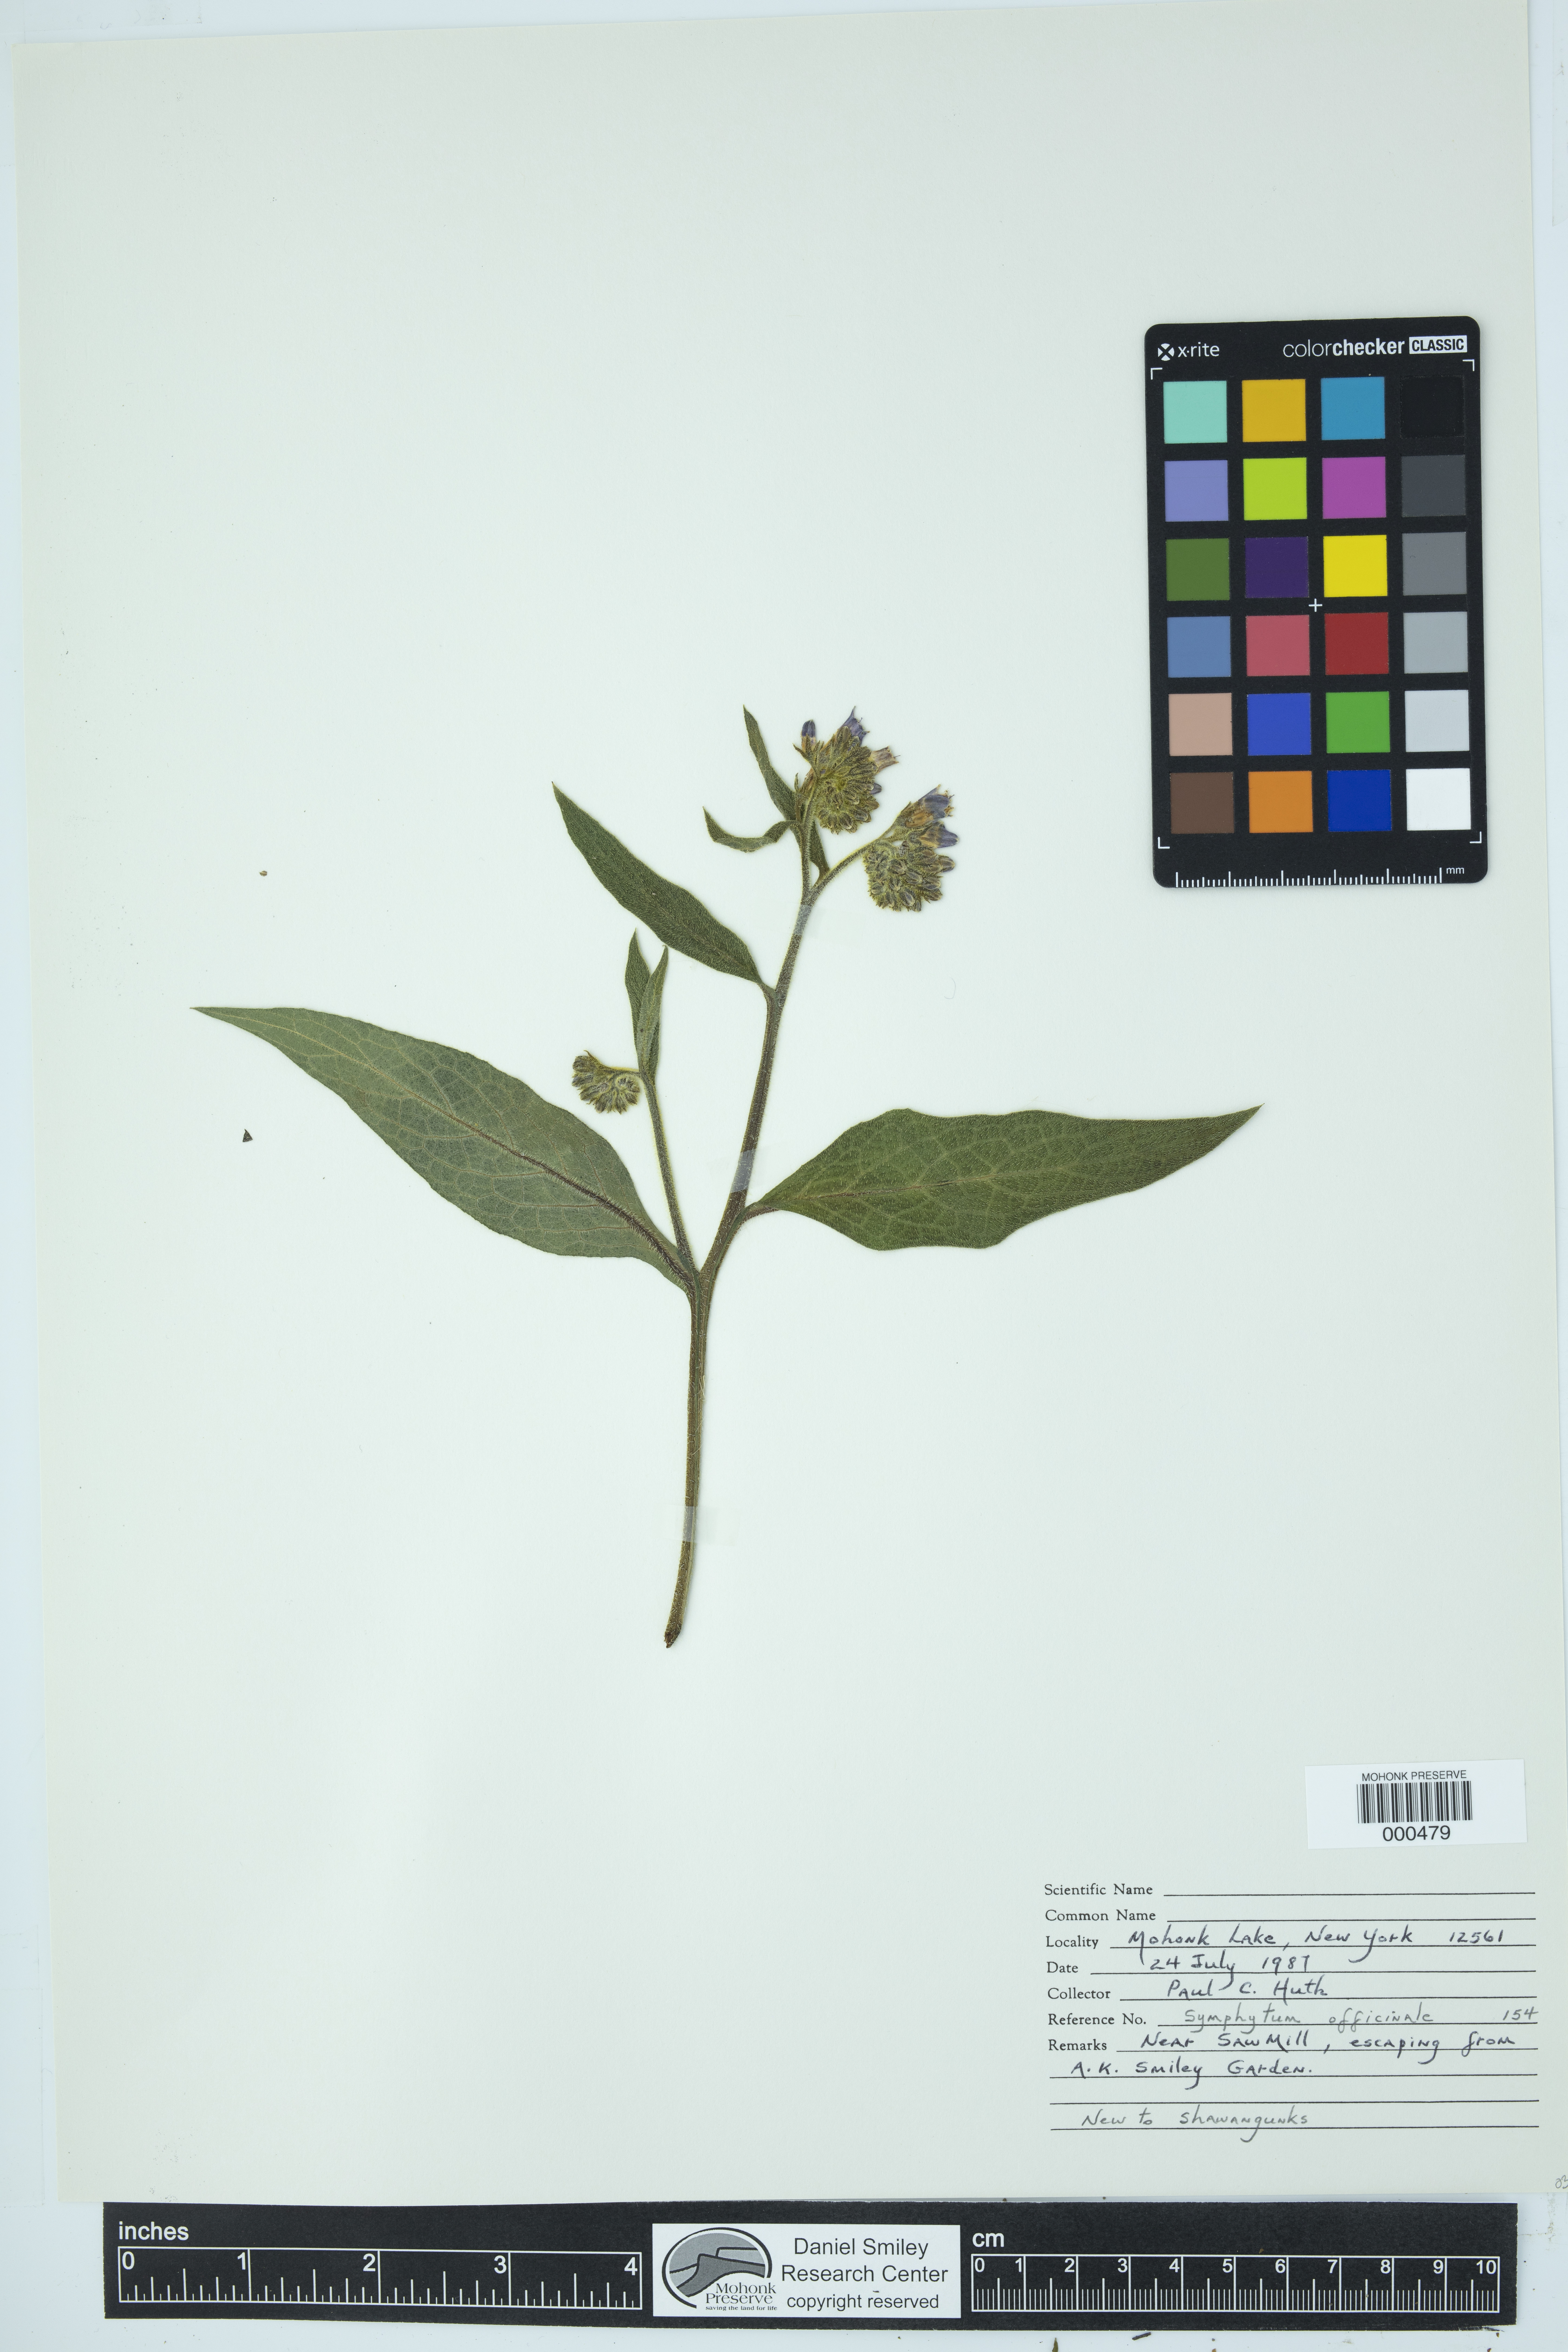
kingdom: Plantae
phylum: Tracheophyta
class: Magnoliopsida
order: Boraginales
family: Boraginaceae
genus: Symphytum
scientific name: Symphytum officinale
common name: Common comfrey
